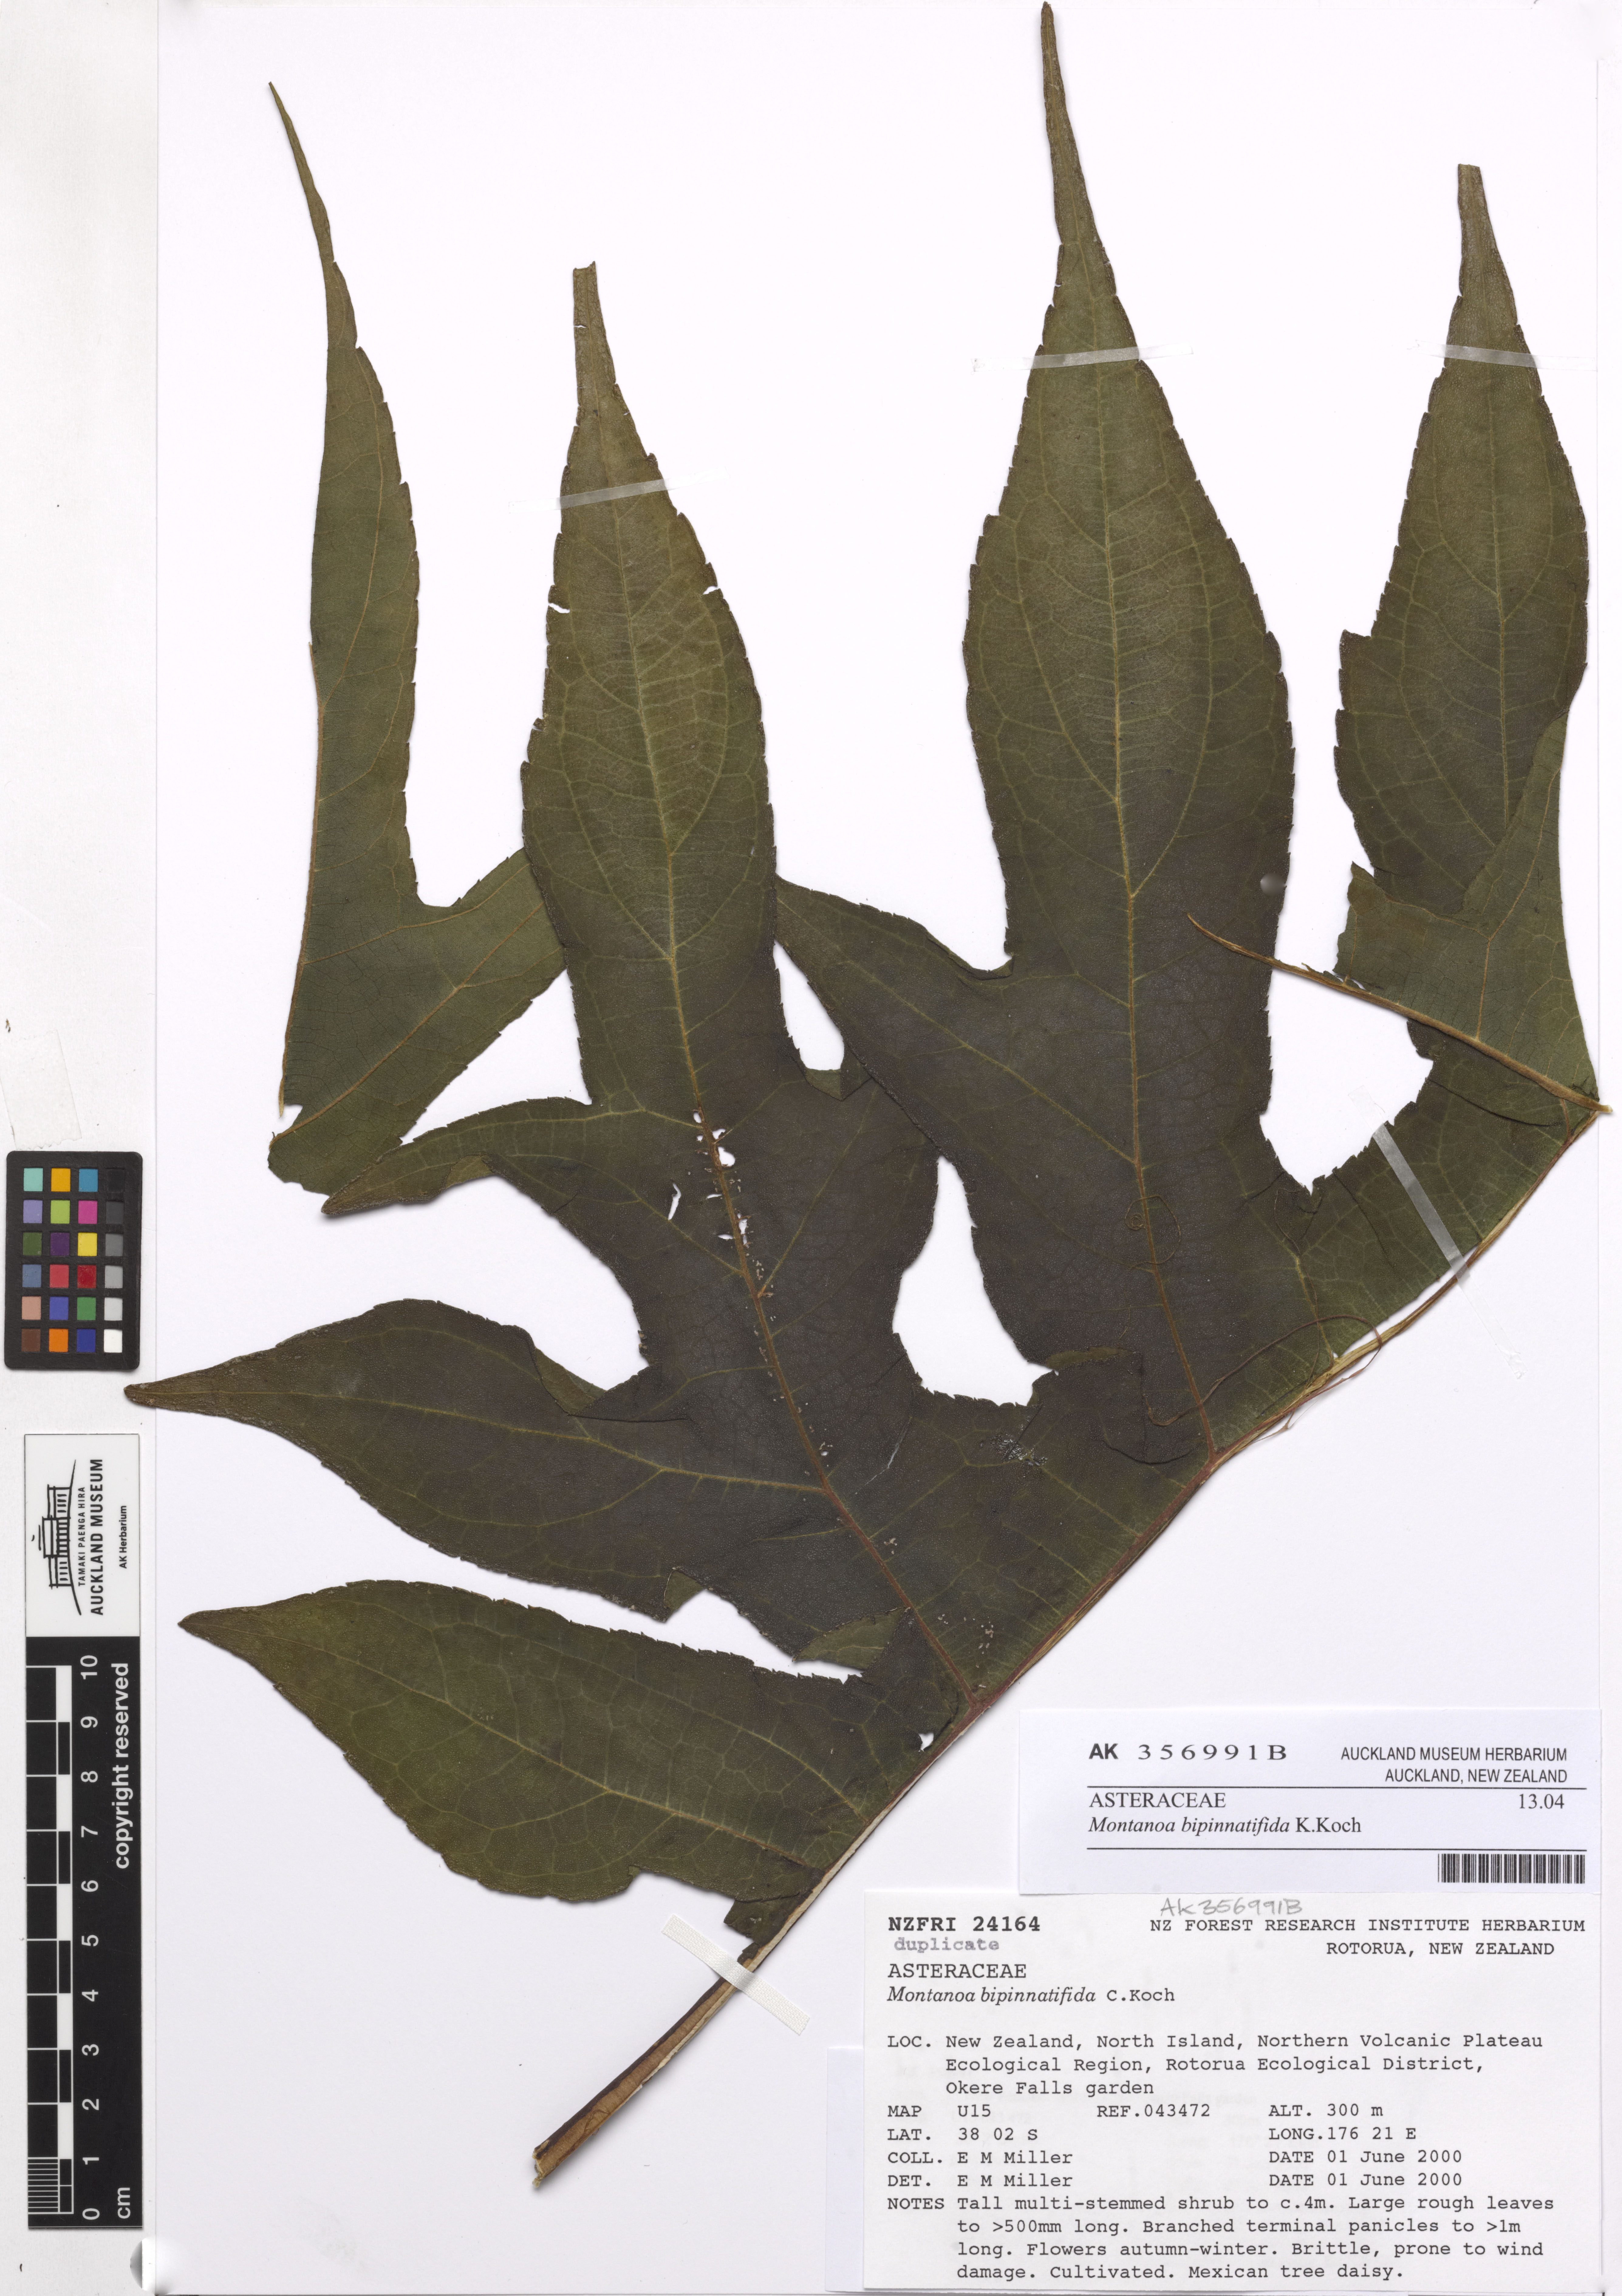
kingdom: Plantae
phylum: Tracheophyta
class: Magnoliopsida
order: Asterales
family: Asteraceae
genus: Montanoa
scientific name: Montanoa bipinnatifida
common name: Mexican daisy bush
